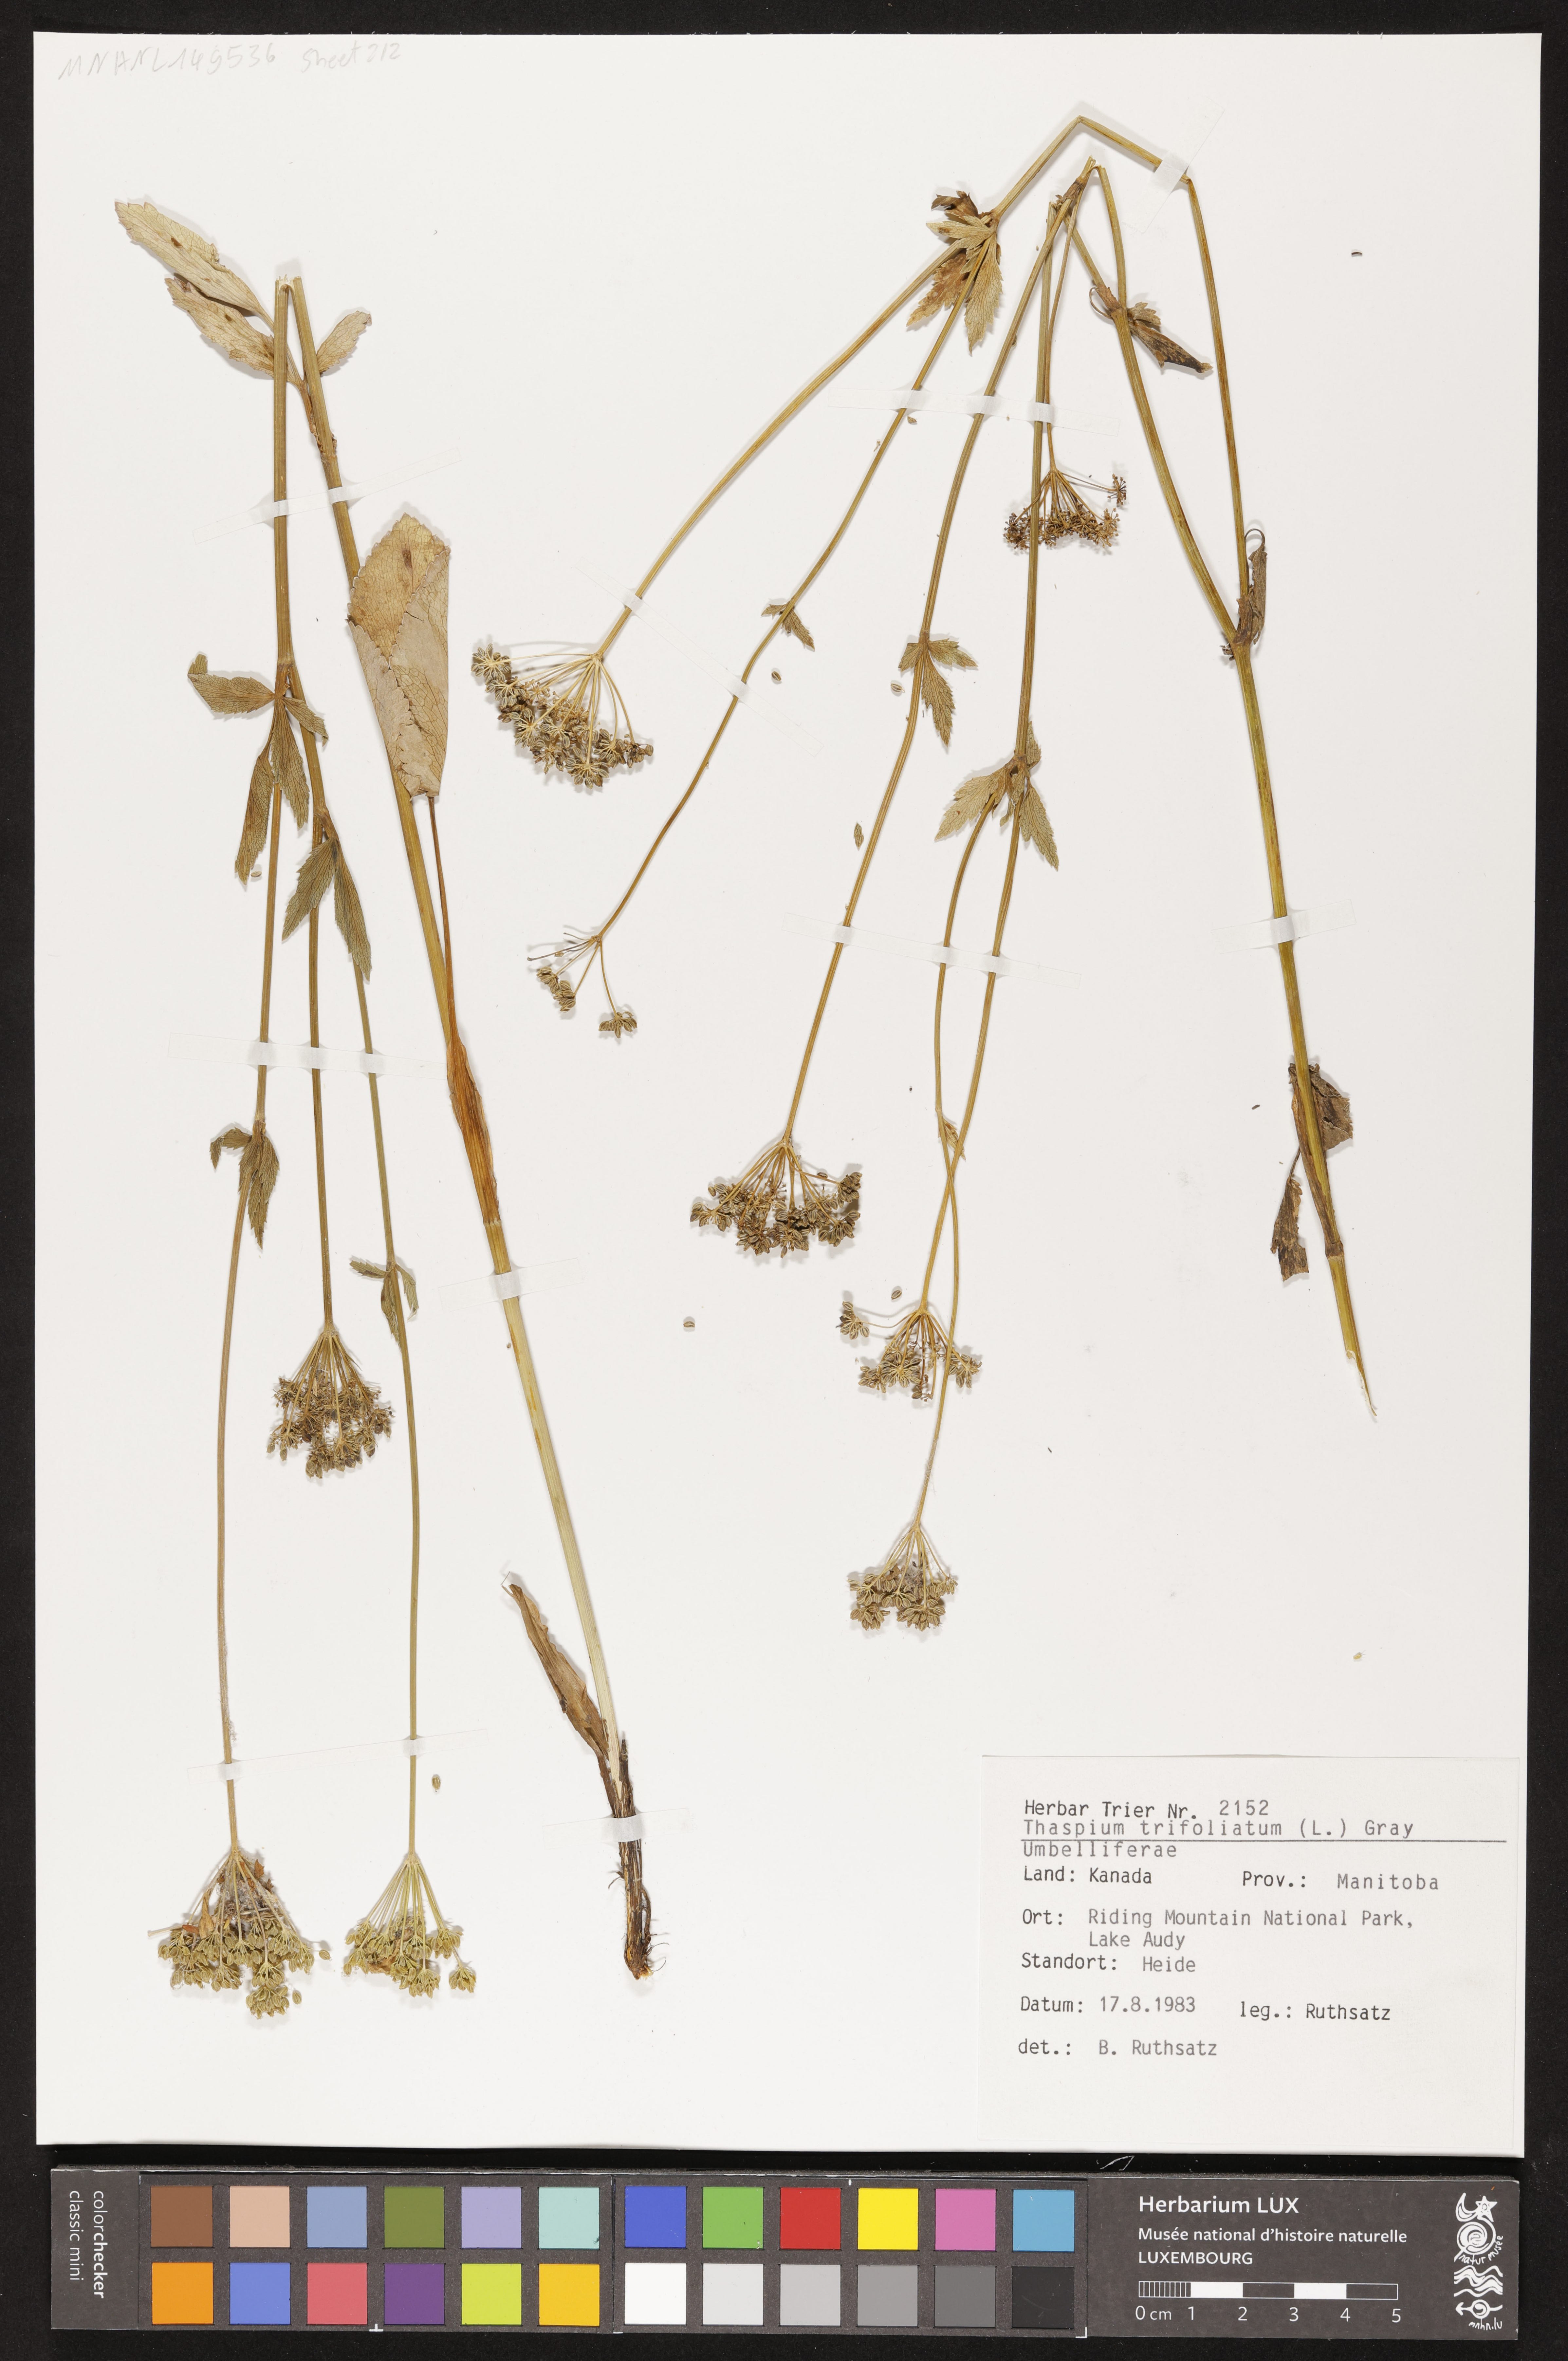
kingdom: Plantae
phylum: Tracheophyta
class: Magnoliopsida
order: Apiales
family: Apiaceae
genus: Thaspium
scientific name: Thaspium trifoliatum
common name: Purple meadow-parsnip
